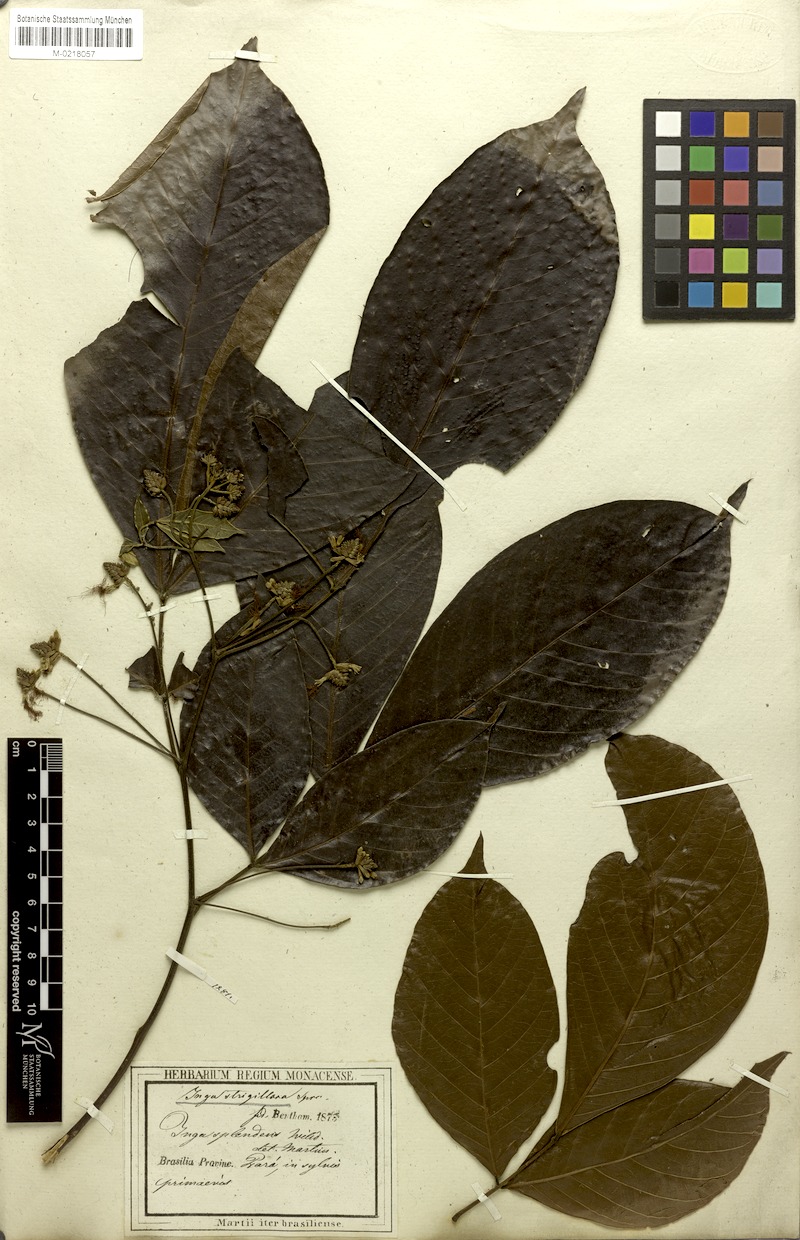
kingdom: Plantae
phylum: Tracheophyta
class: Magnoliopsida
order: Fabales
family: Fabaceae
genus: Inga
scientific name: Inga punctata
